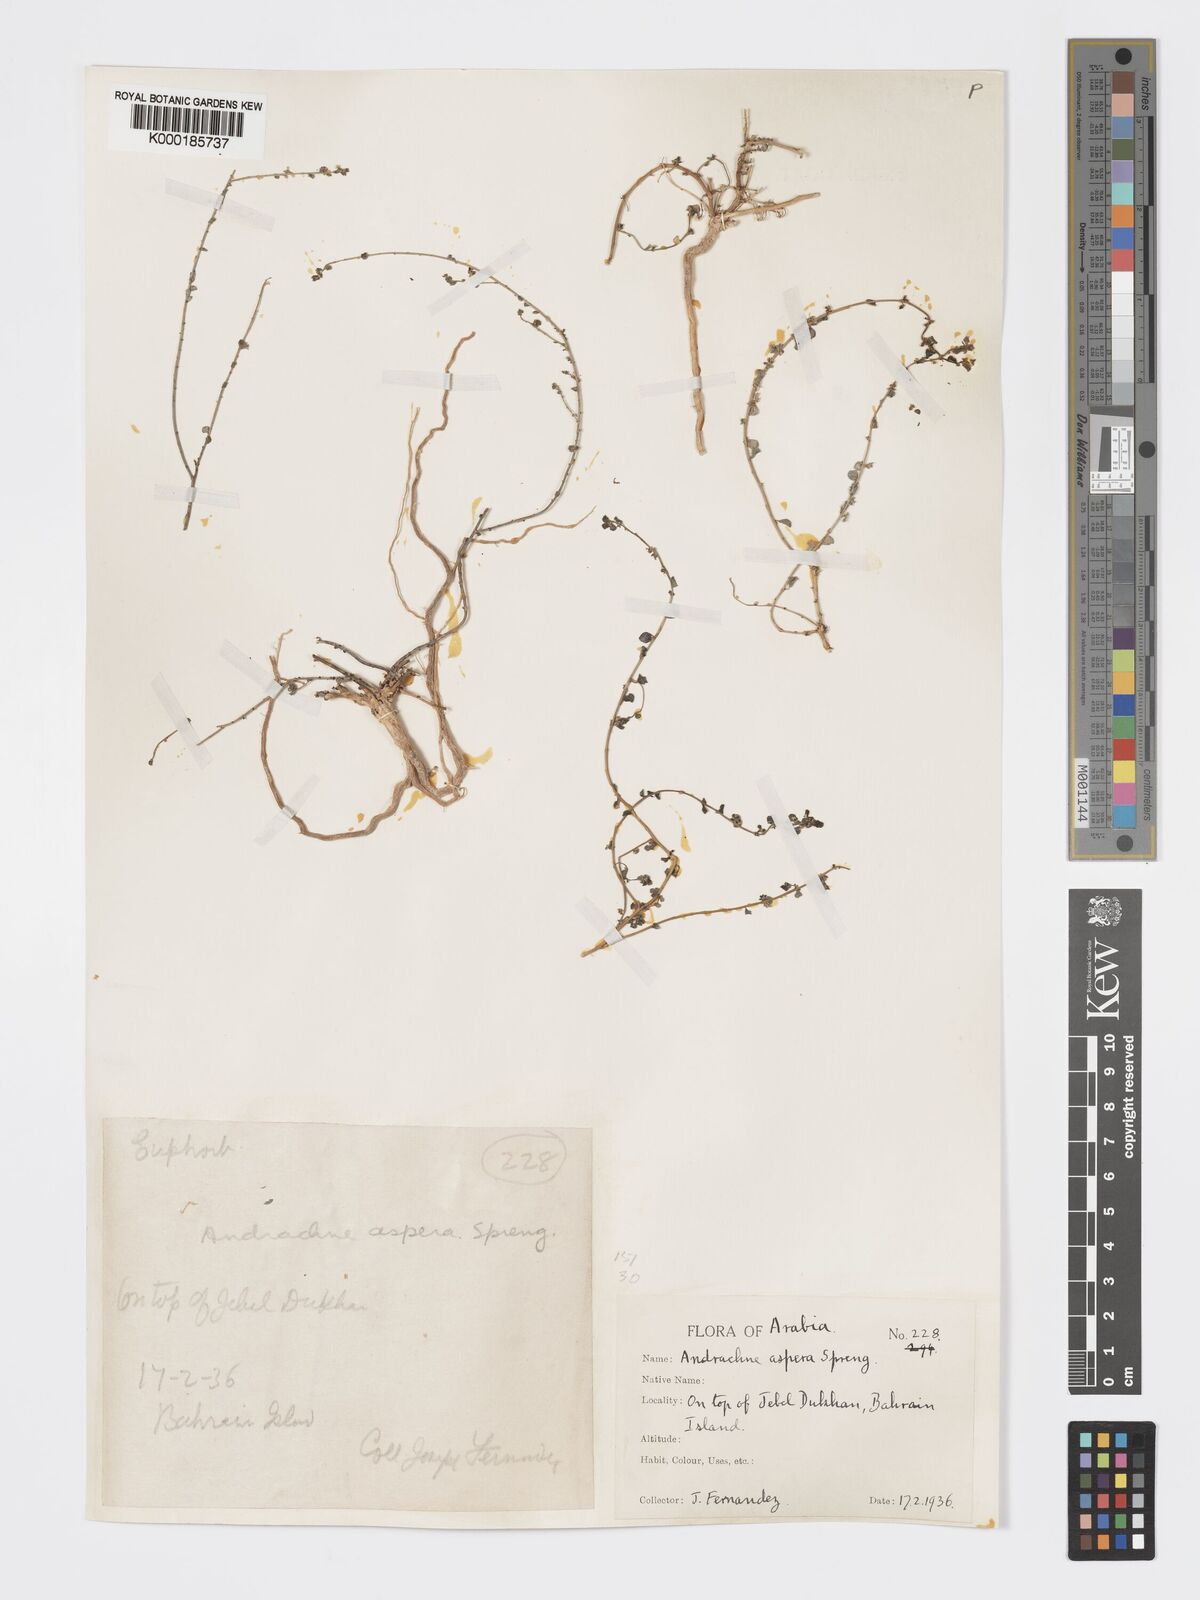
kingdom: Plantae
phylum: Tracheophyta
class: Magnoliopsida
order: Malpighiales
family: Phyllanthaceae
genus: Andrachne
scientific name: Andrachne aspera
